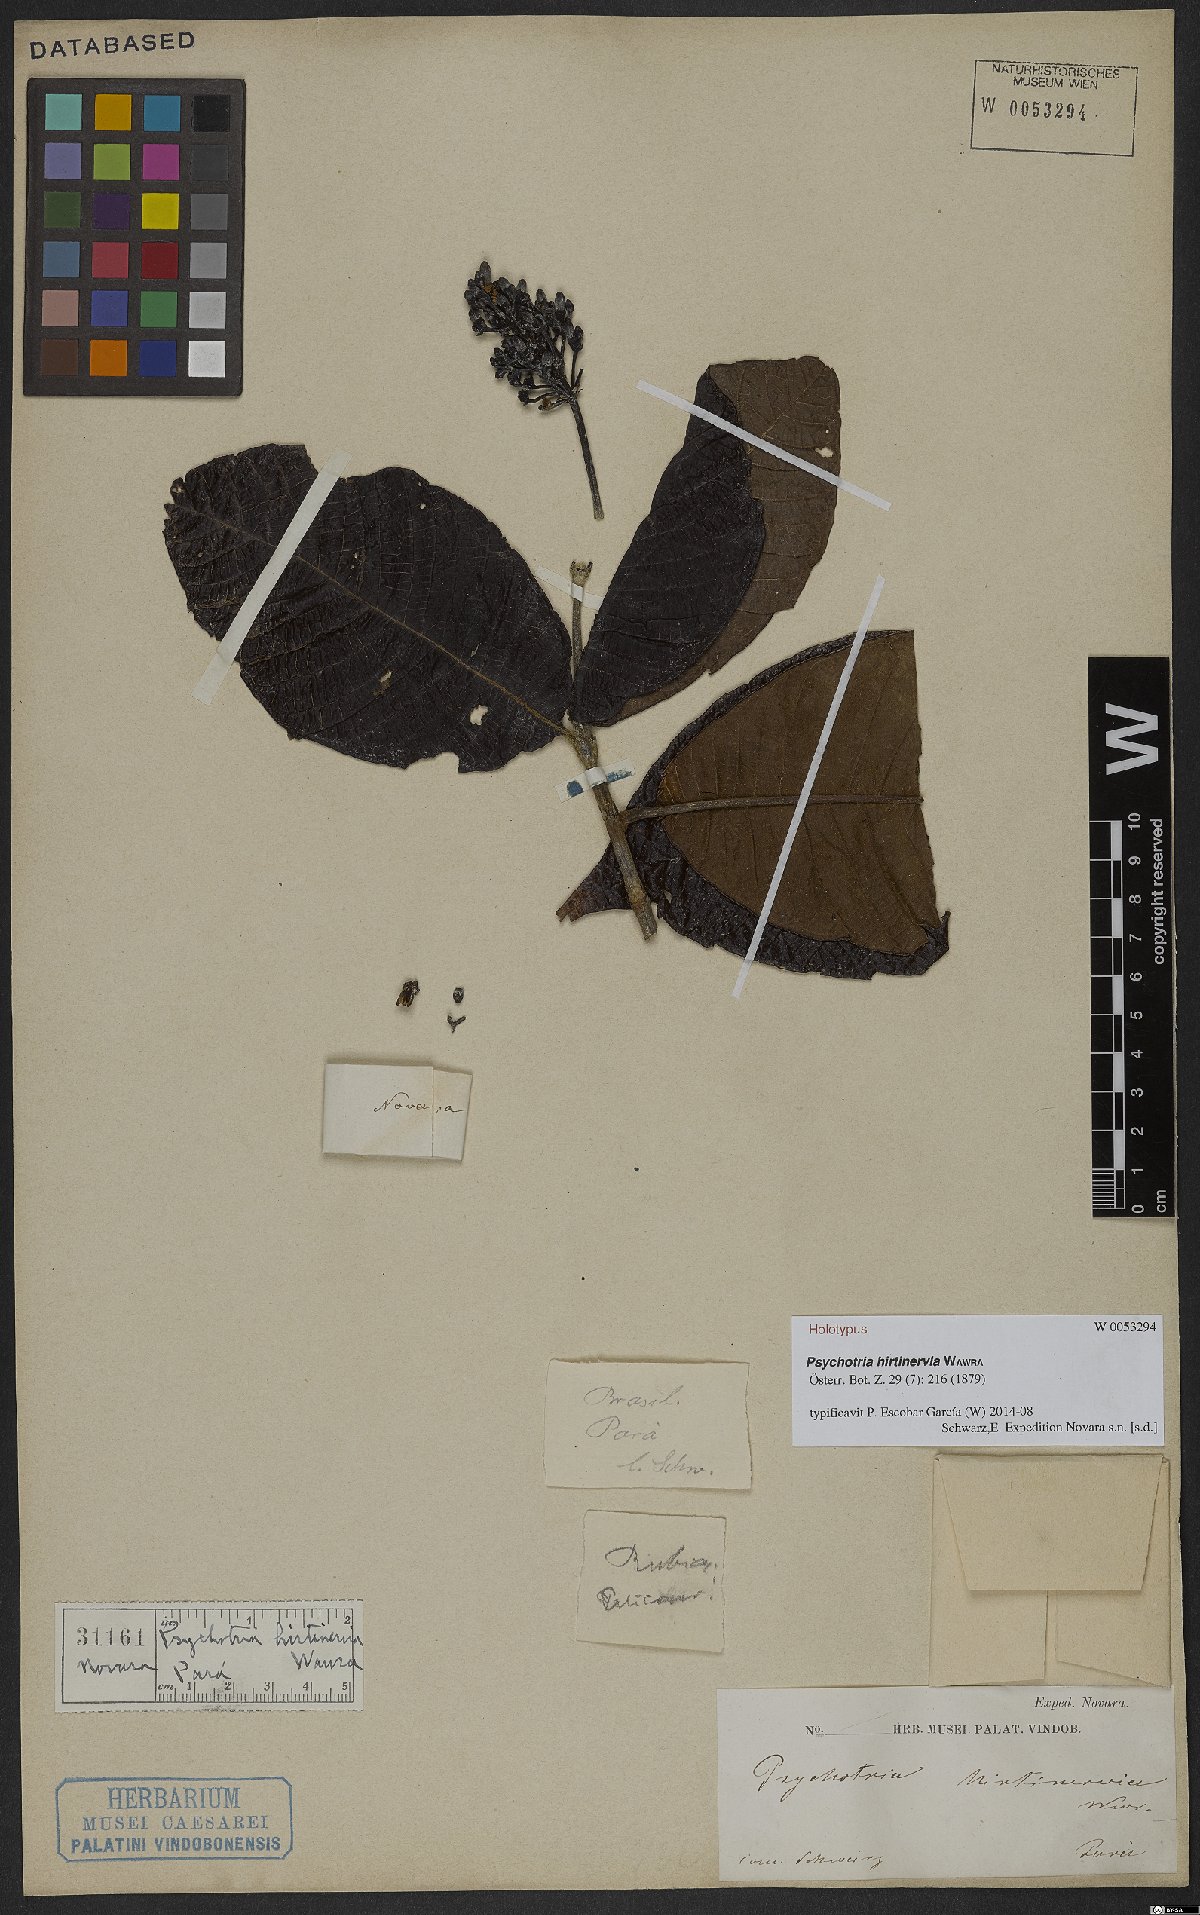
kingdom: Plantae
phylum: Tracheophyta
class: Magnoliopsida
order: Gentianales
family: Rubiaceae
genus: Psychotria
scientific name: Psychotria hirtinervia
